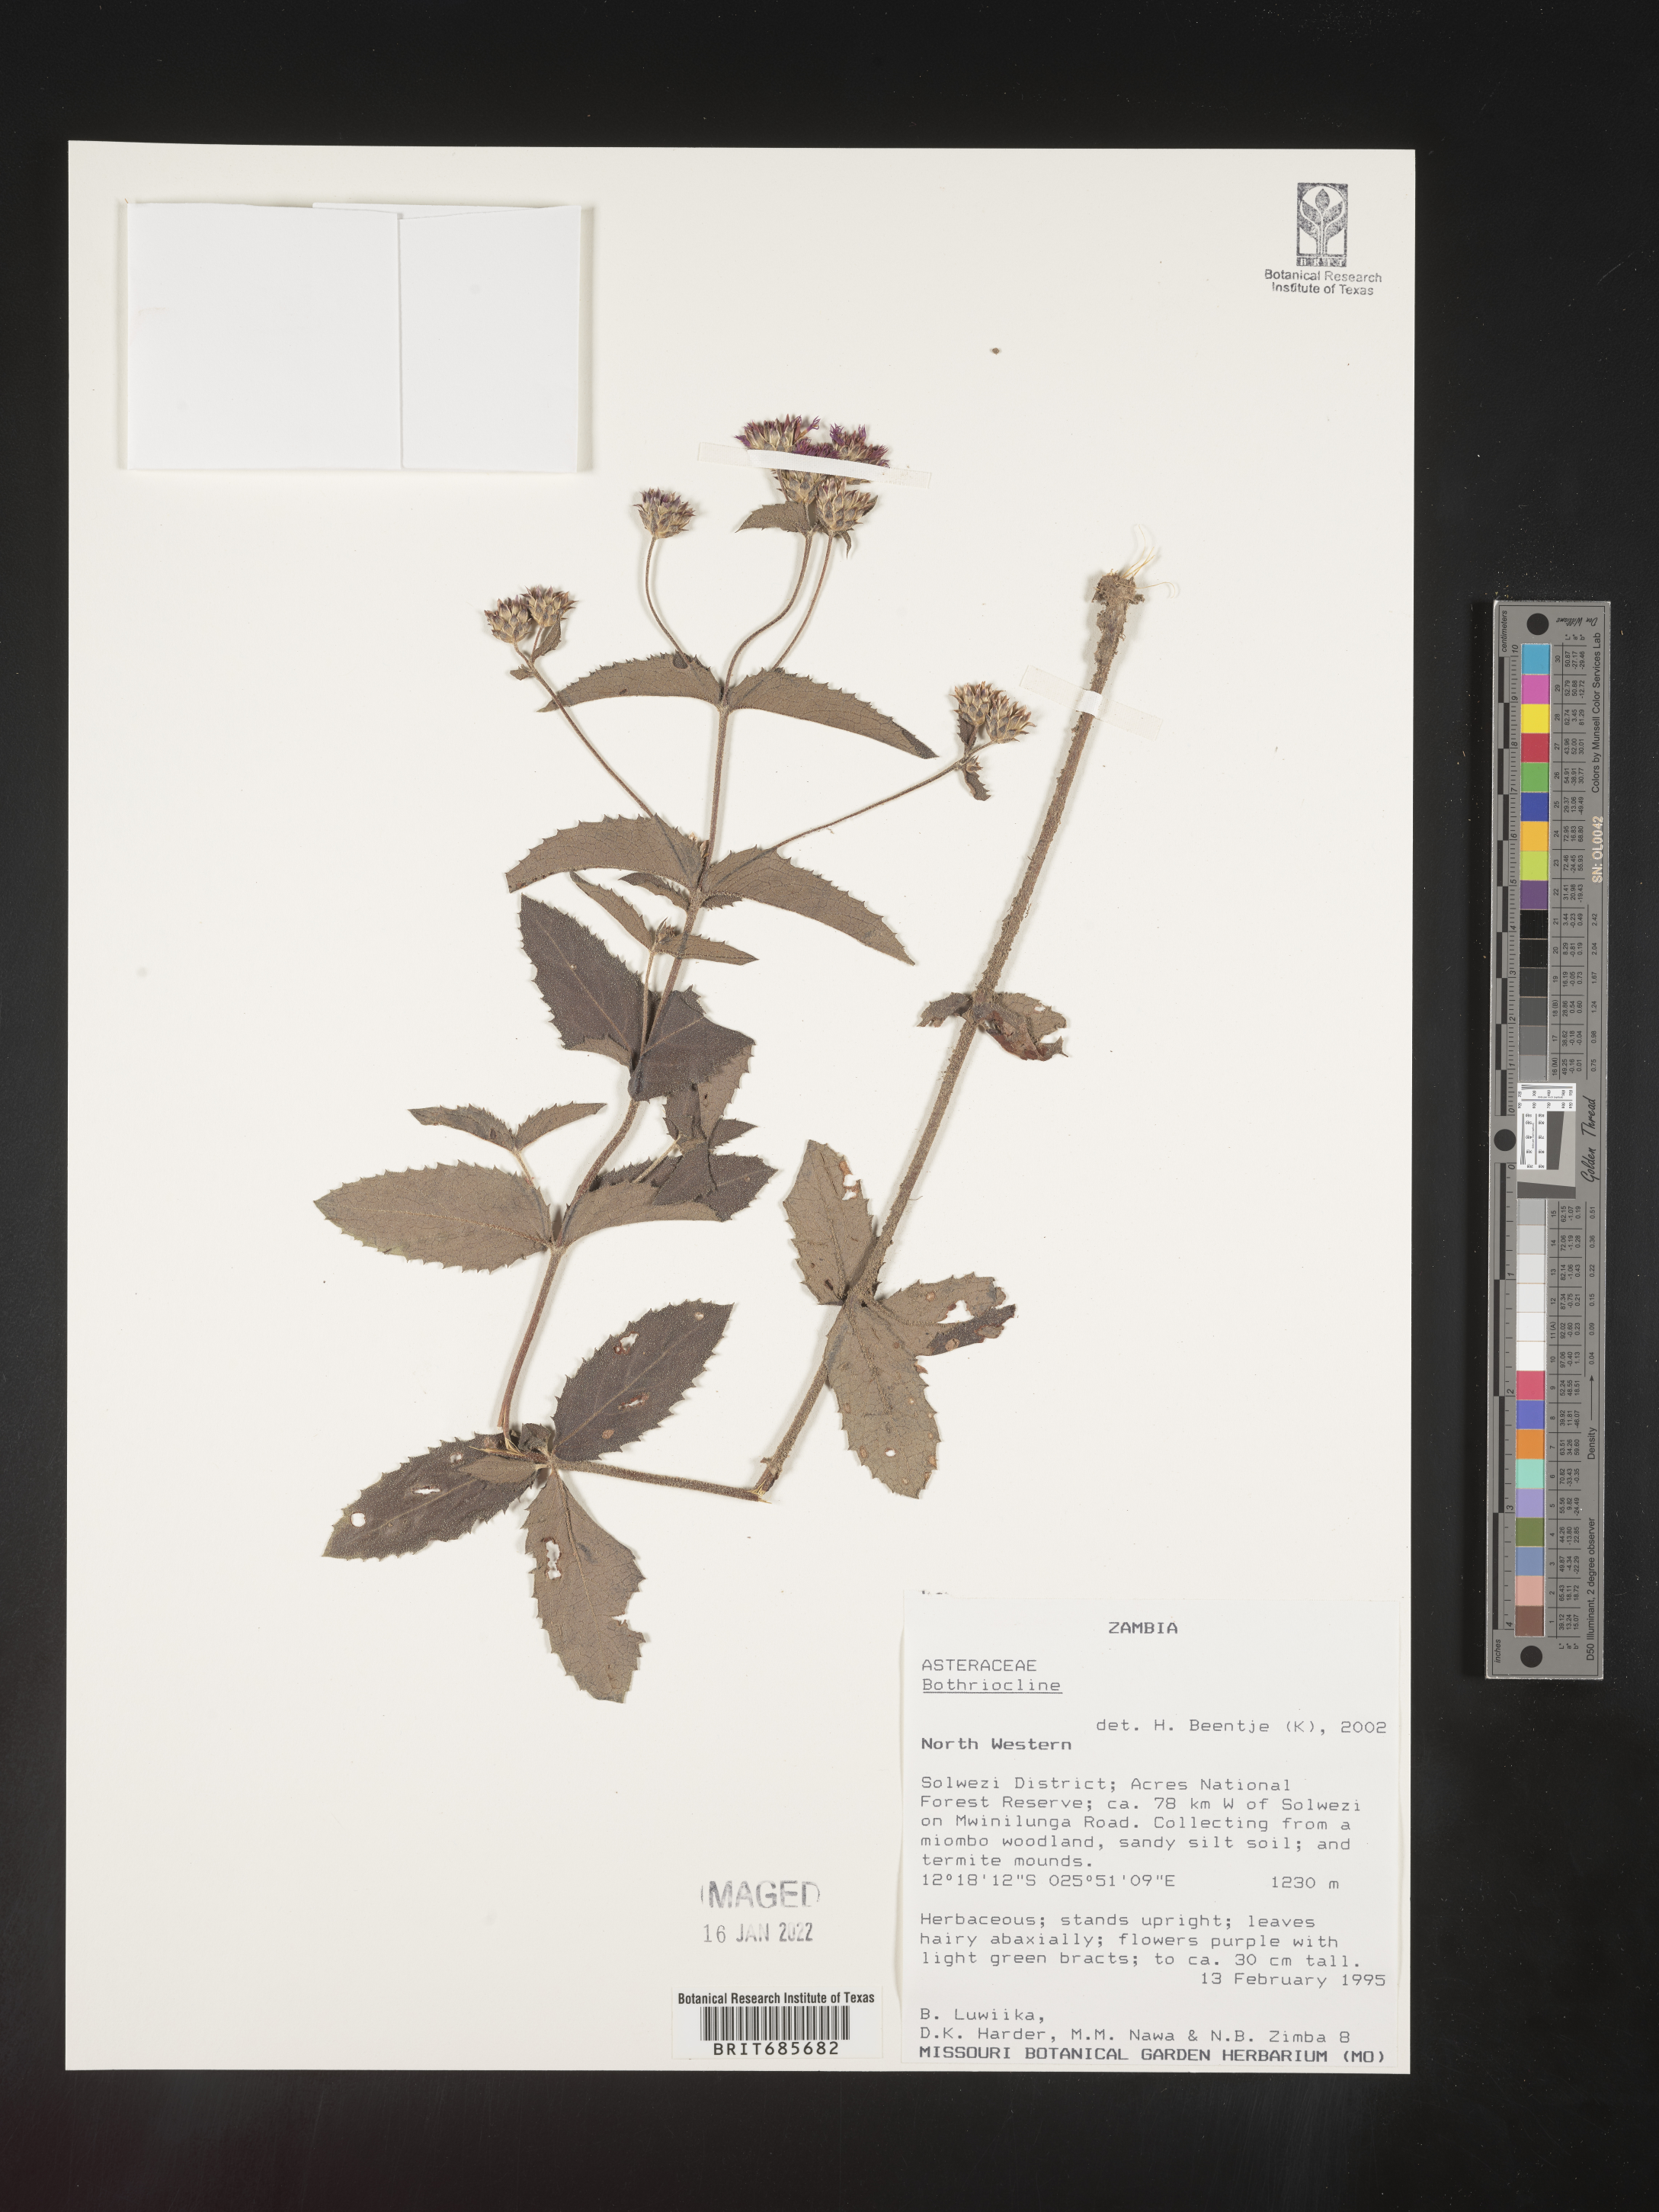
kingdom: Plantae
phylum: Tracheophyta
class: Magnoliopsida
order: Asterales
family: Asteraceae
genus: Bothriocline
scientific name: Bothriocline
